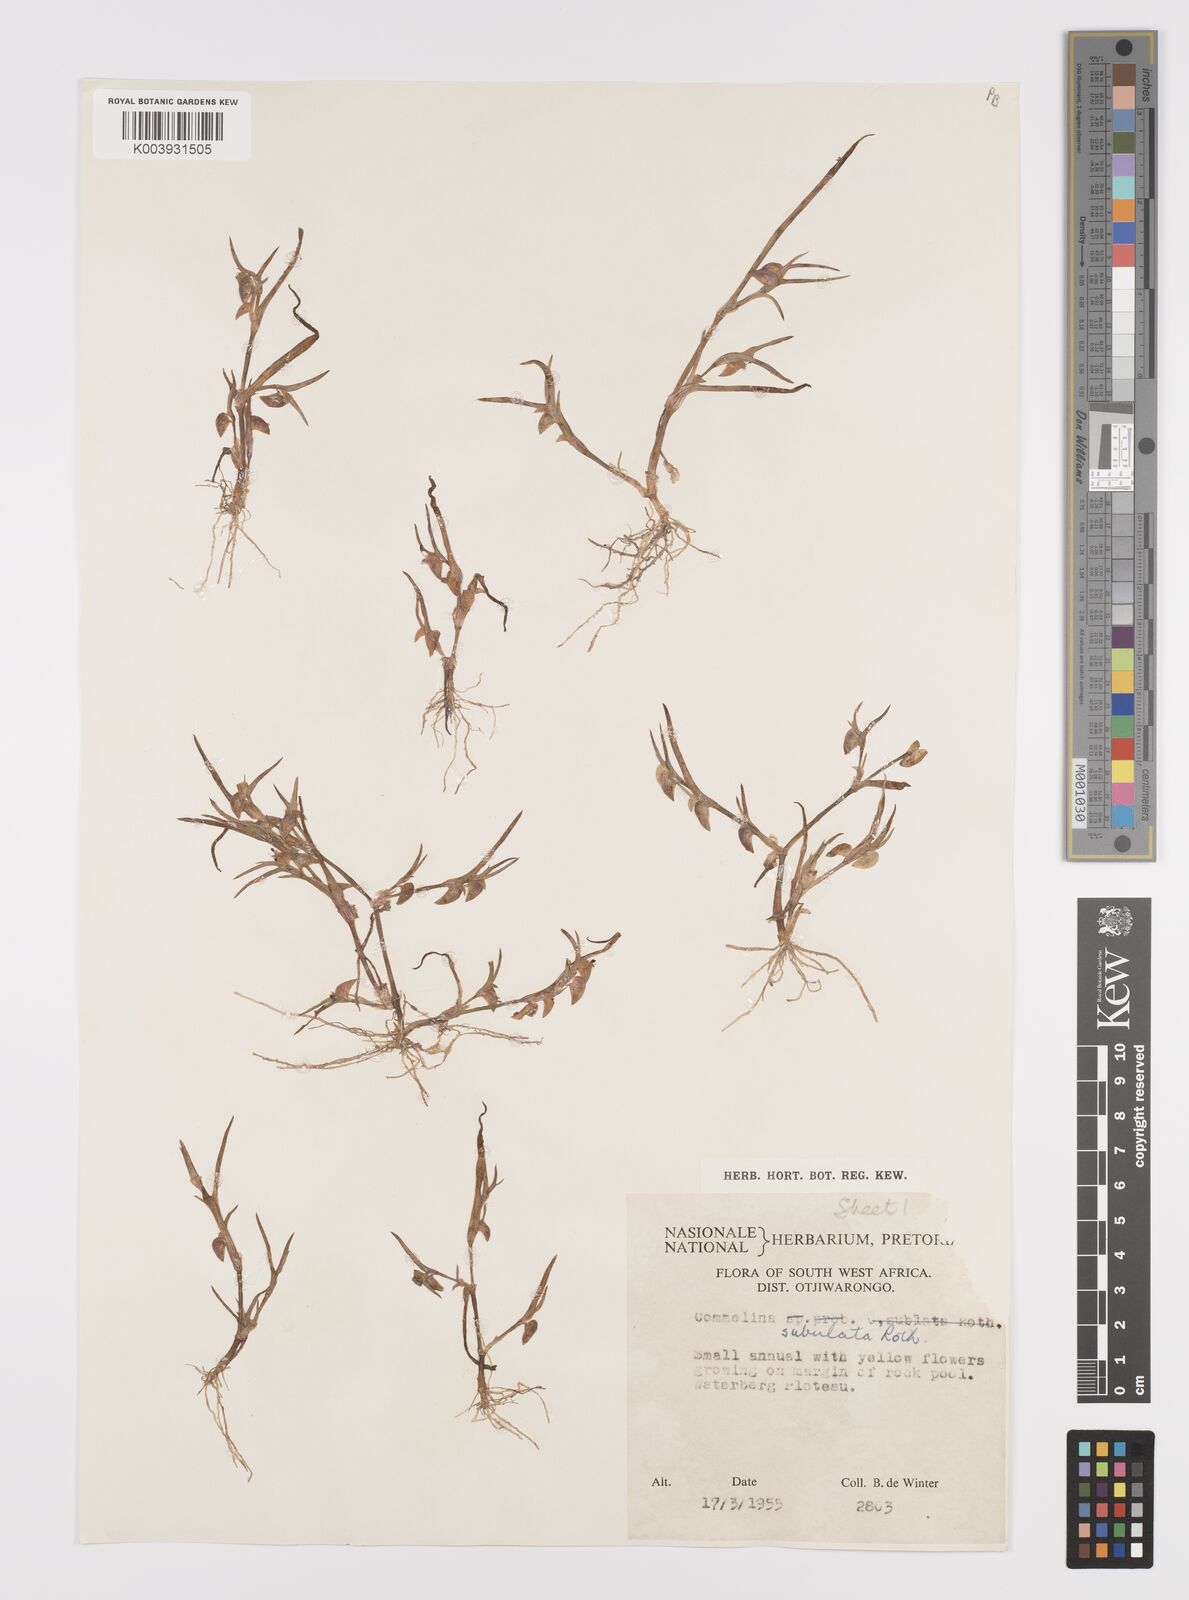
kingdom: Plantae
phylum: Tracheophyta
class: Liliopsida
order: Commelinales
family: Commelinaceae
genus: Commelina
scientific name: Commelina subulata
